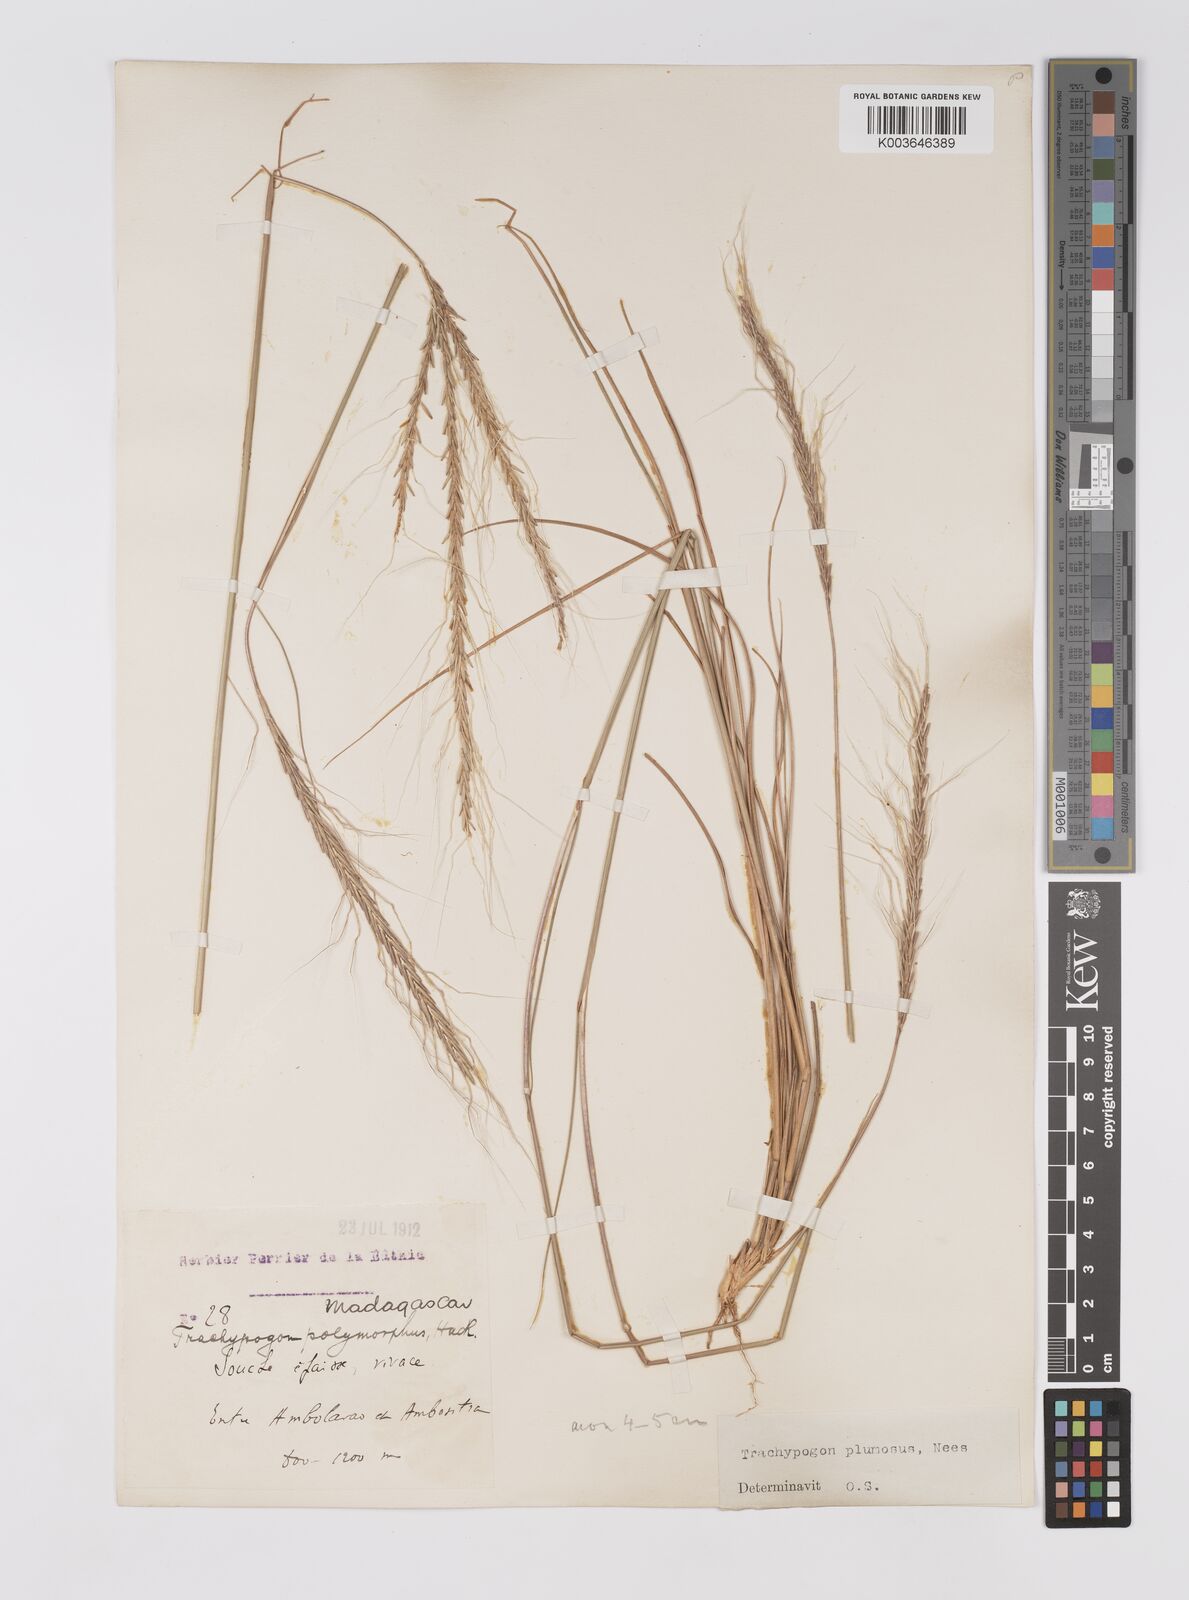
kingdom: Plantae
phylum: Tracheophyta
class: Liliopsida
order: Poales
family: Poaceae
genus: Trachypogon
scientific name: Trachypogon spicatus
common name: Crinkle-awn
